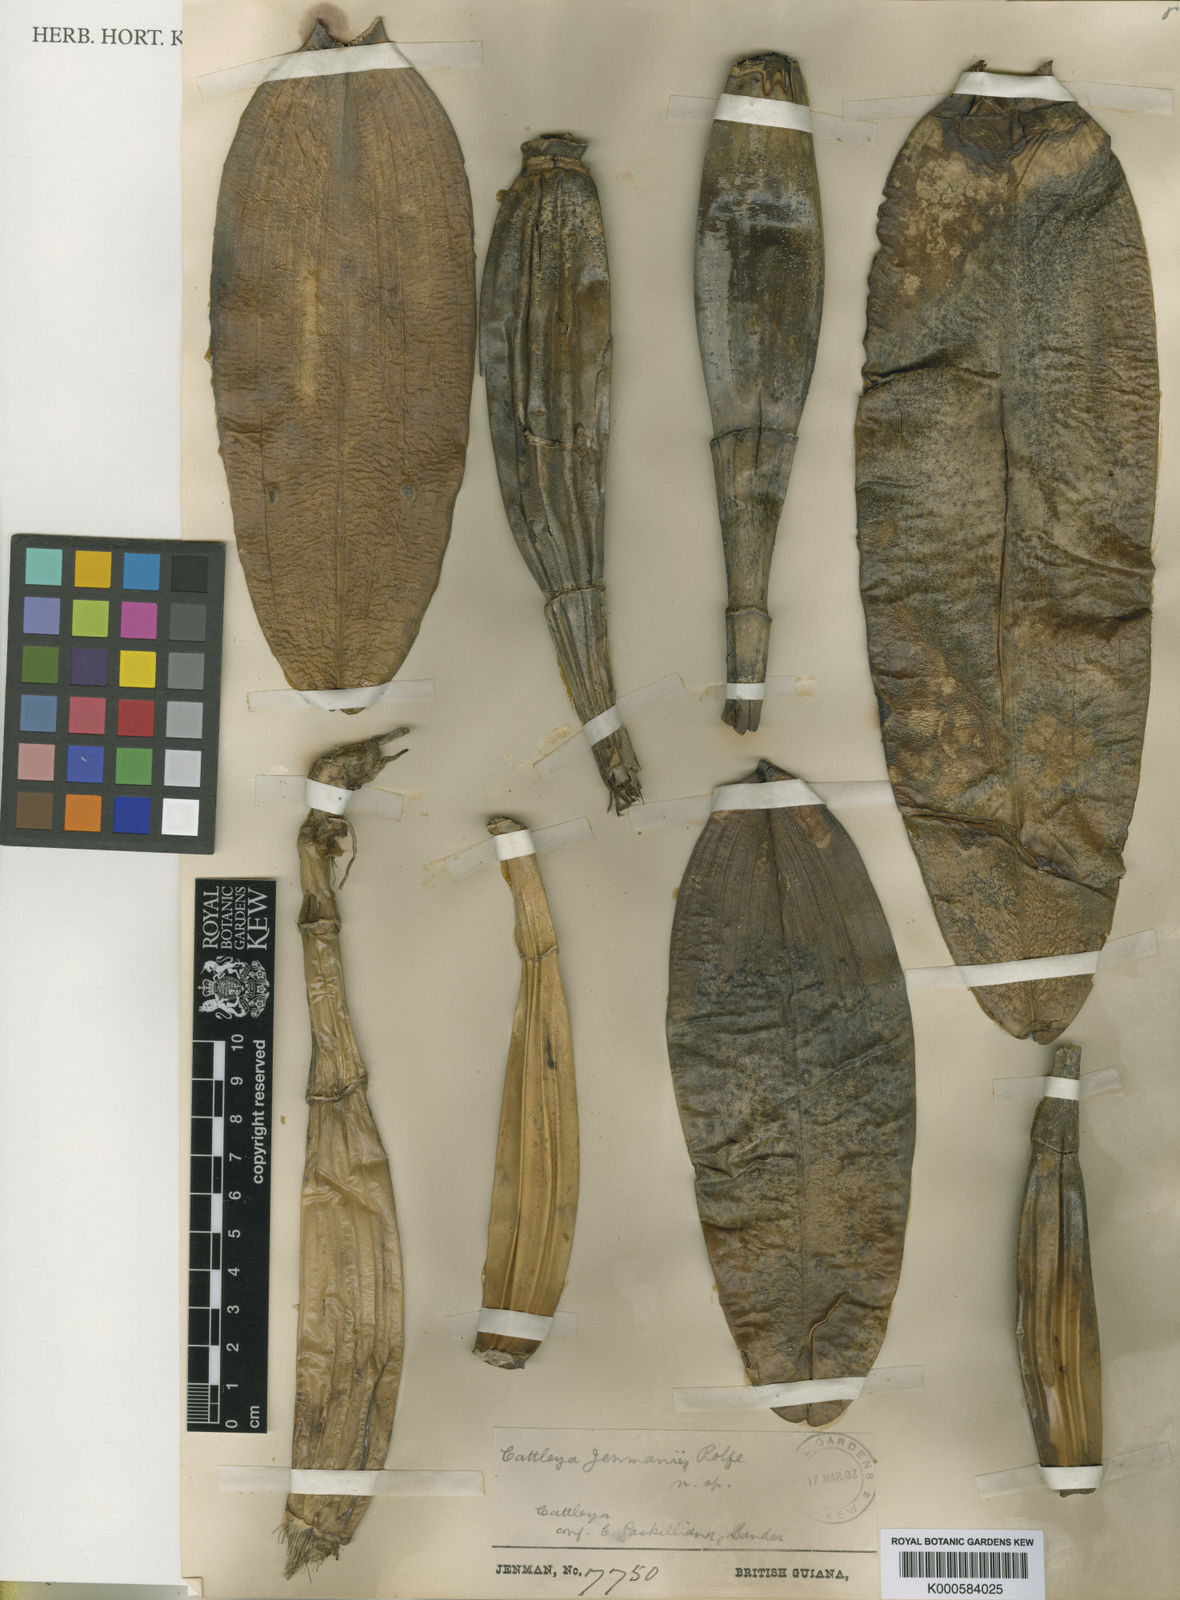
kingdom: Plantae
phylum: Tracheophyta
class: Liliopsida
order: Asparagales
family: Orchidaceae
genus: Cattleya
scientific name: Cattleya jenmanii
